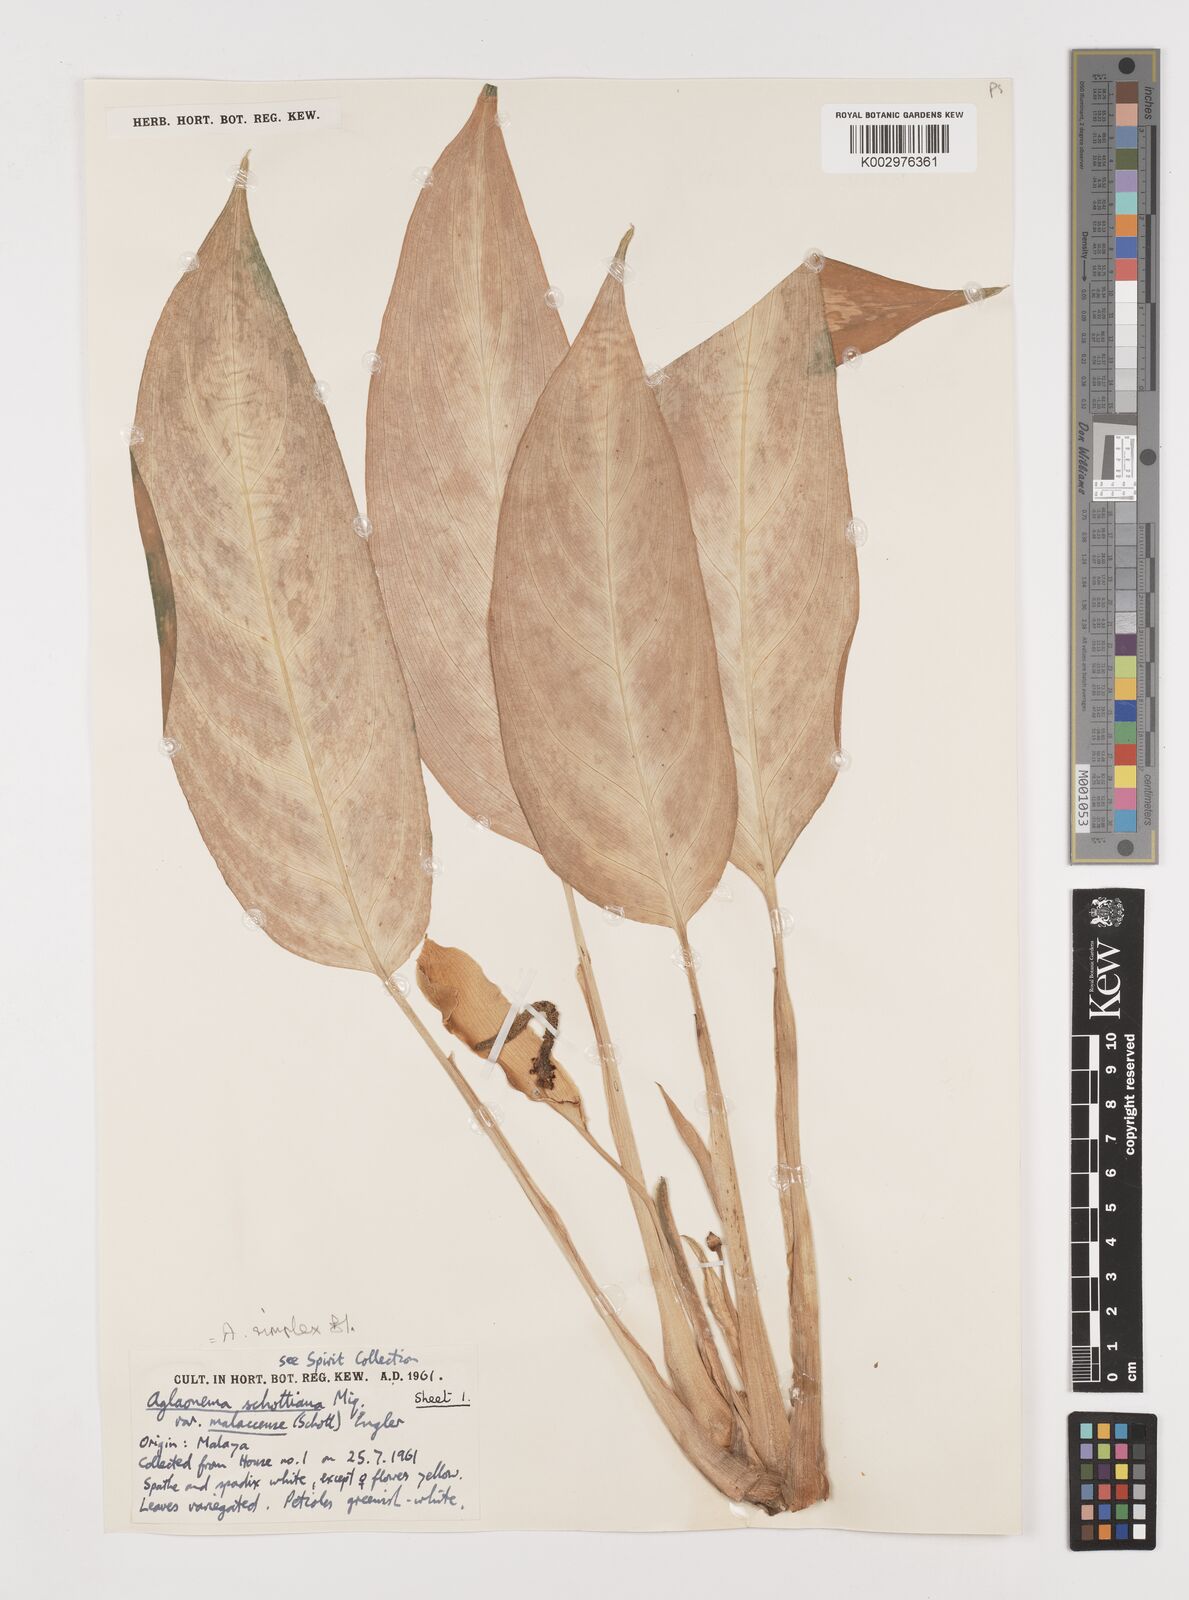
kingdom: Plantae
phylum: Tracheophyta
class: Liliopsida
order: Alismatales
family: Araceae
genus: Aglaonema
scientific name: Aglaonema simplex
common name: Malayan-sword
